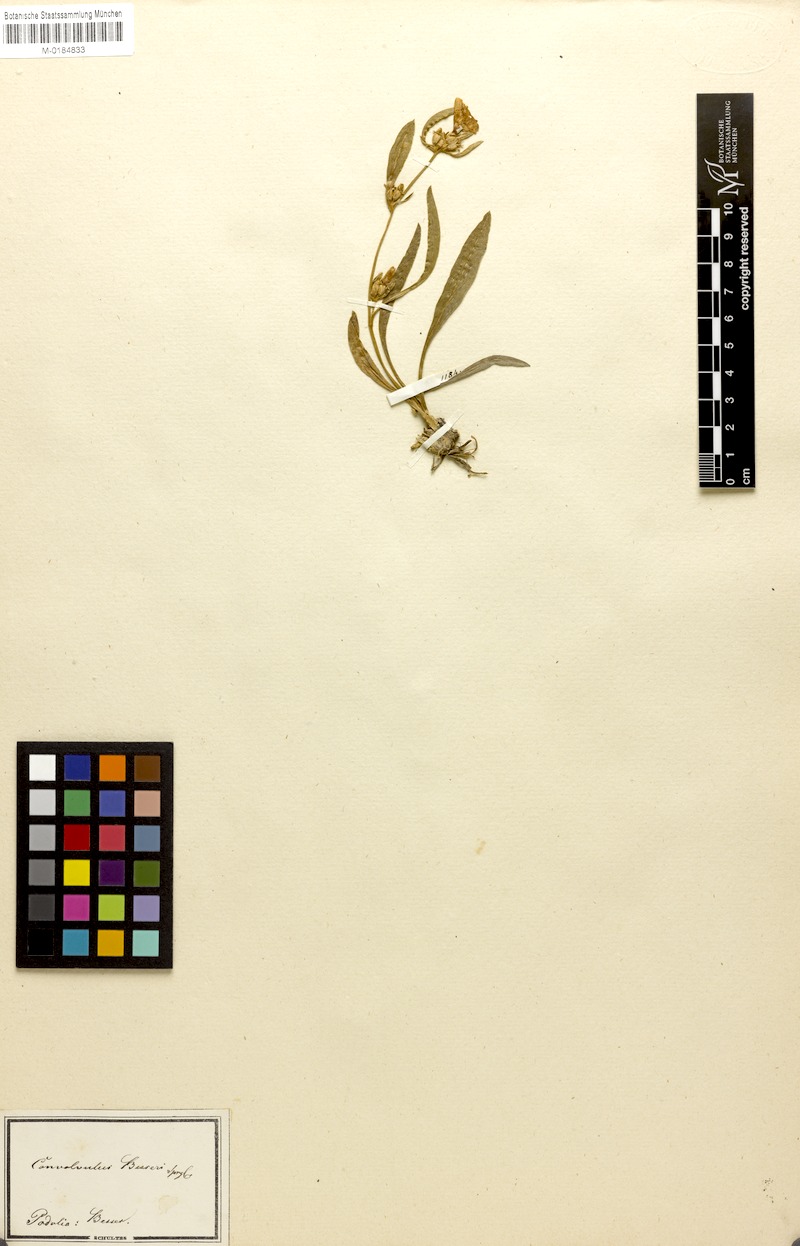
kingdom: Plantae
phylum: Tracheophyta
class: Magnoliopsida
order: Solanales
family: Convolvulaceae
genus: Convolvulus
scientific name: Convolvulus lineatus
